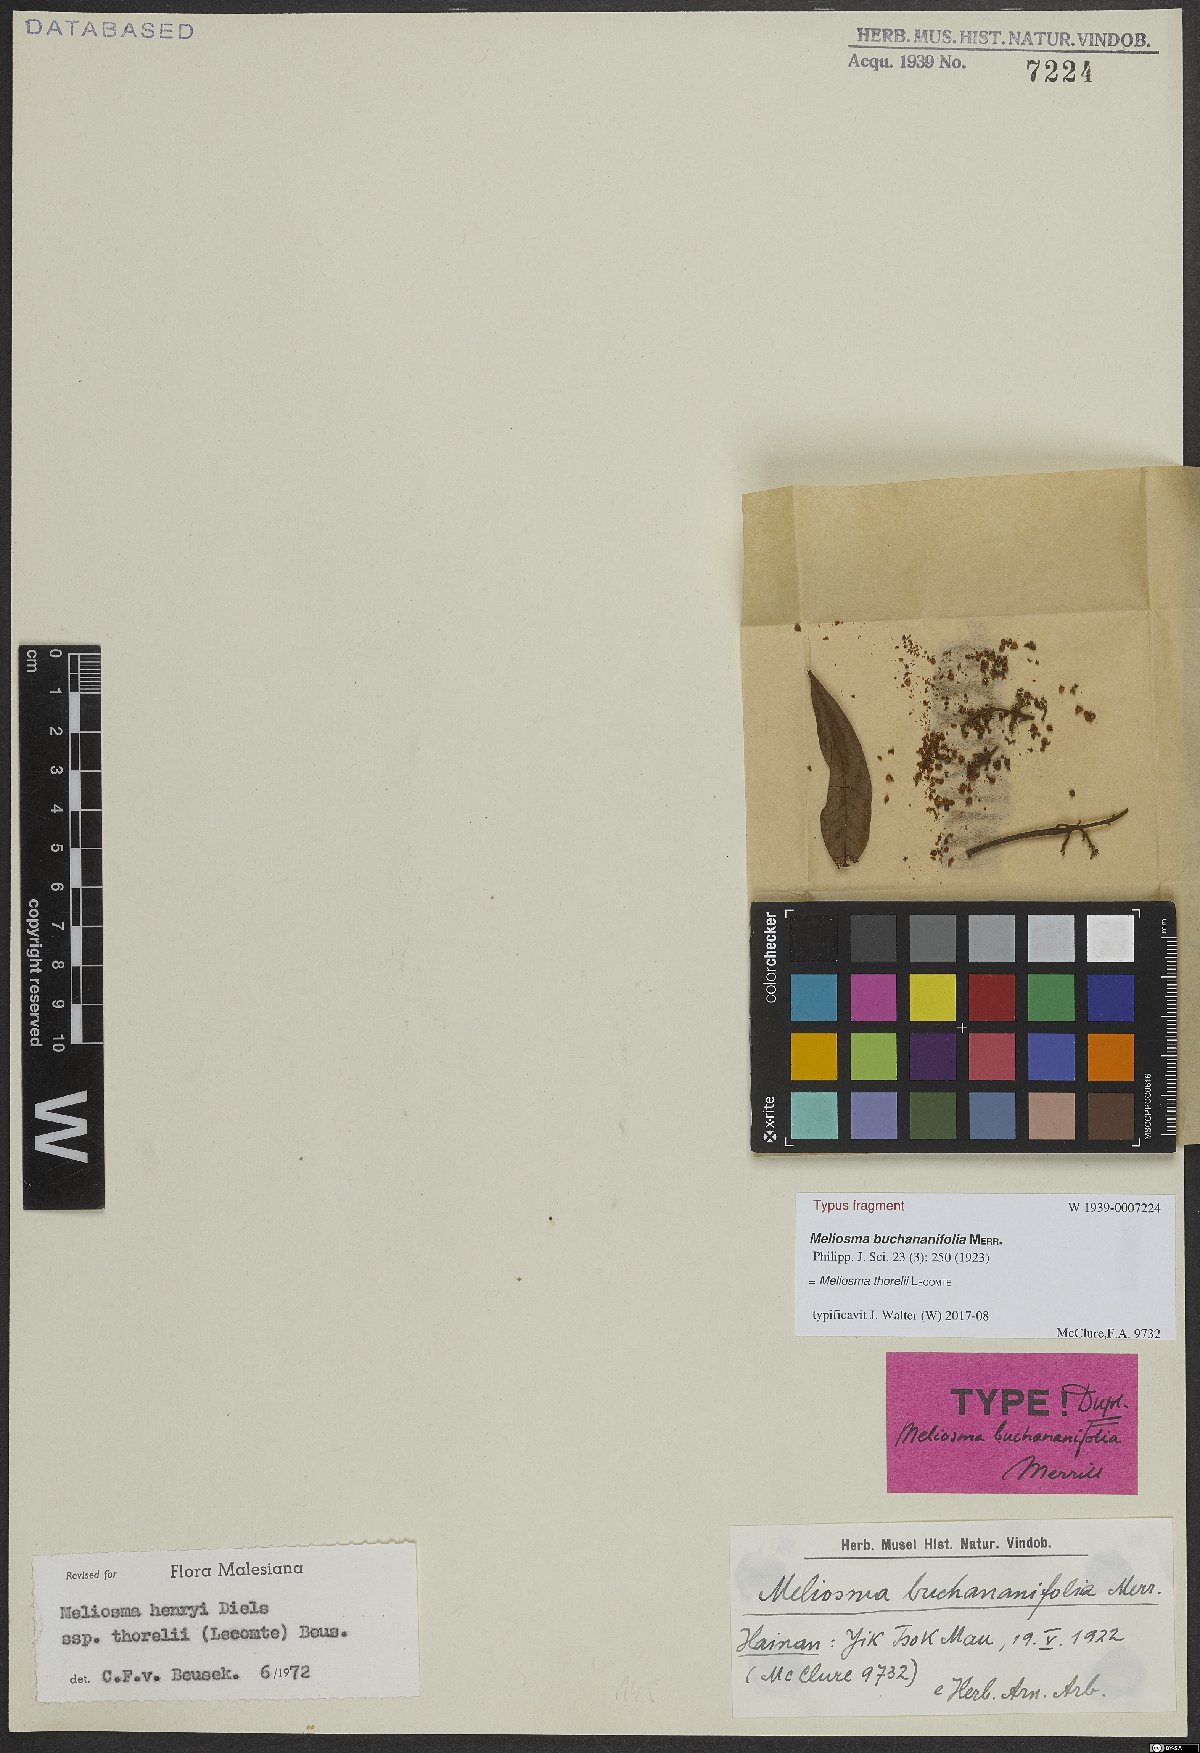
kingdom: Plantae
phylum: Tracheophyta
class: Magnoliopsida
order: Proteales
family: Sabiaceae
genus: Meliosma
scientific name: Meliosma thorelii
